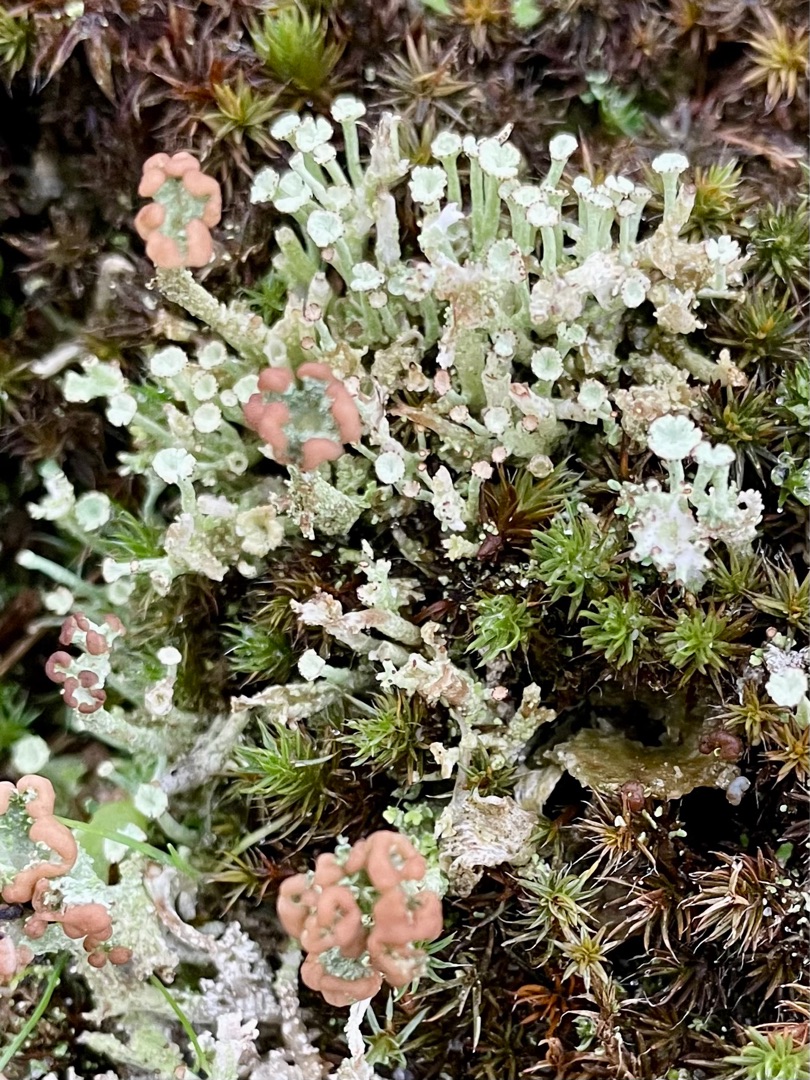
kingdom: Fungi
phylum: Ascomycota
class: Lecanoromycetes
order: Lecanorales
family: Cladoniaceae
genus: Cladonia
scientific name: Cladonia ramulosa
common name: Kliddet bægerlav
